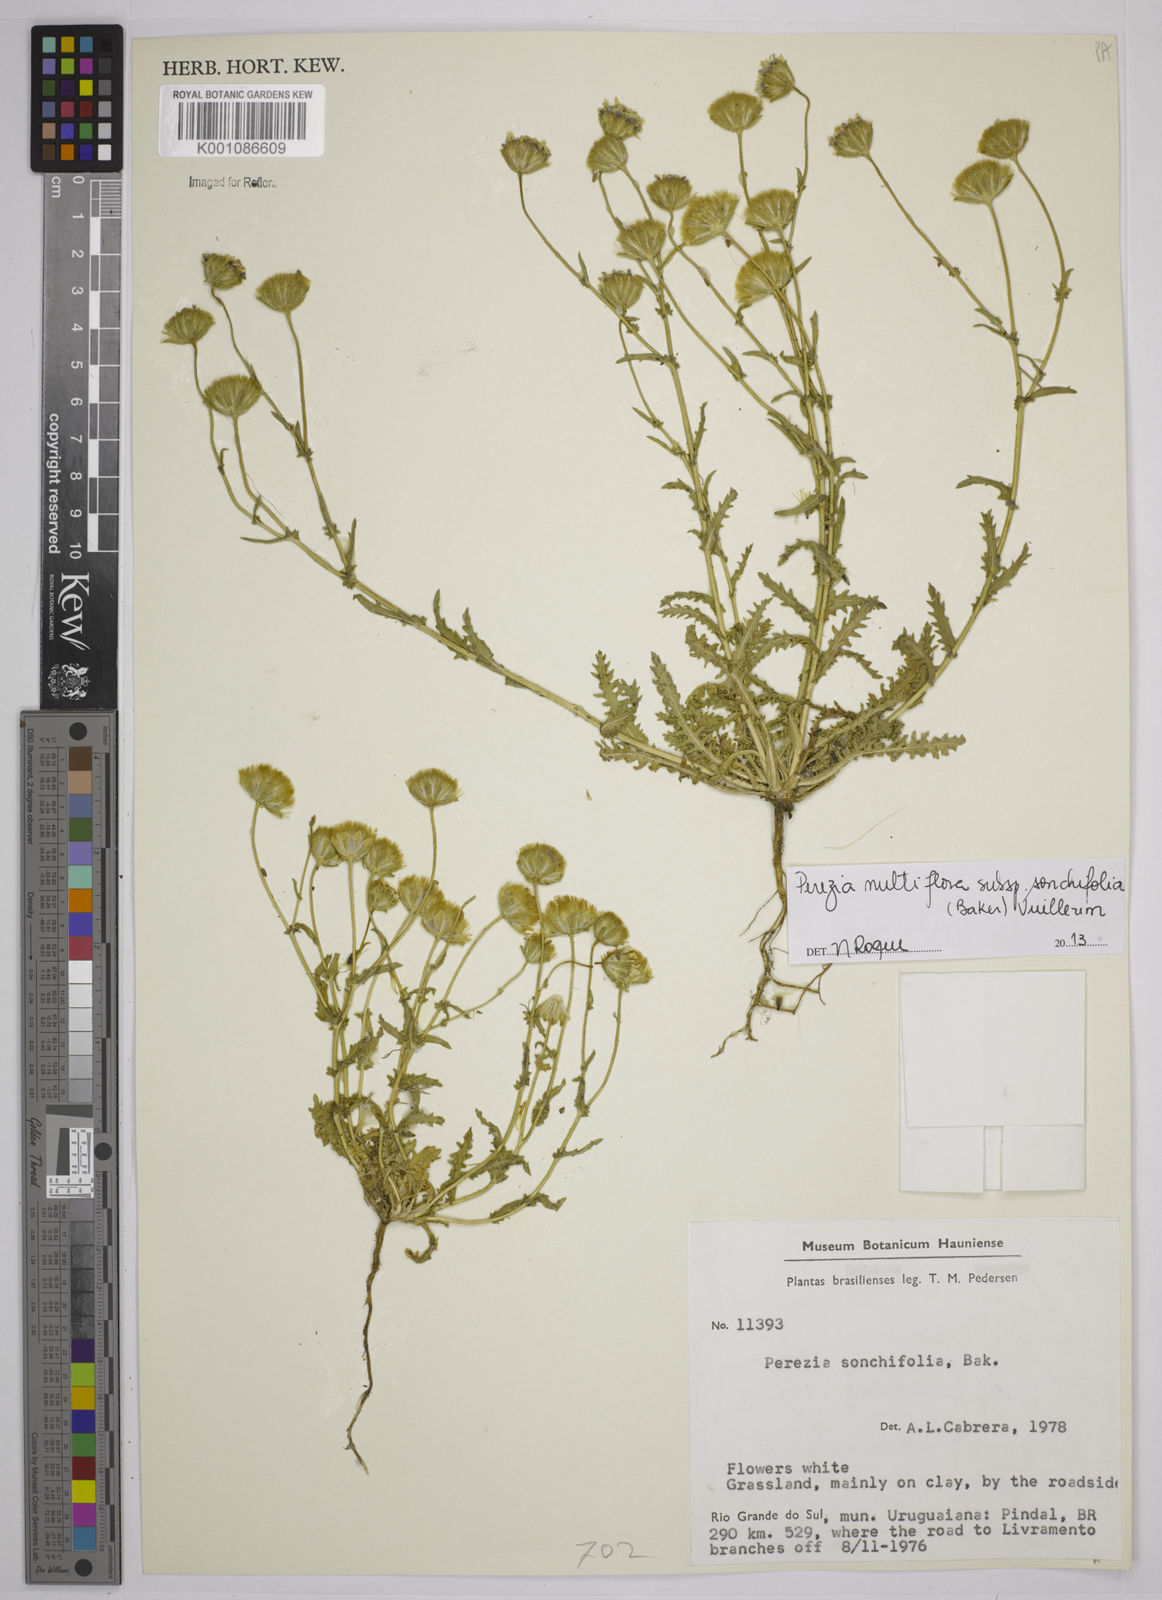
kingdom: Plantae
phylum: Tracheophyta
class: Magnoliopsida
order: Asterales
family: Asteraceae
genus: Perezia
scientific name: Perezia
